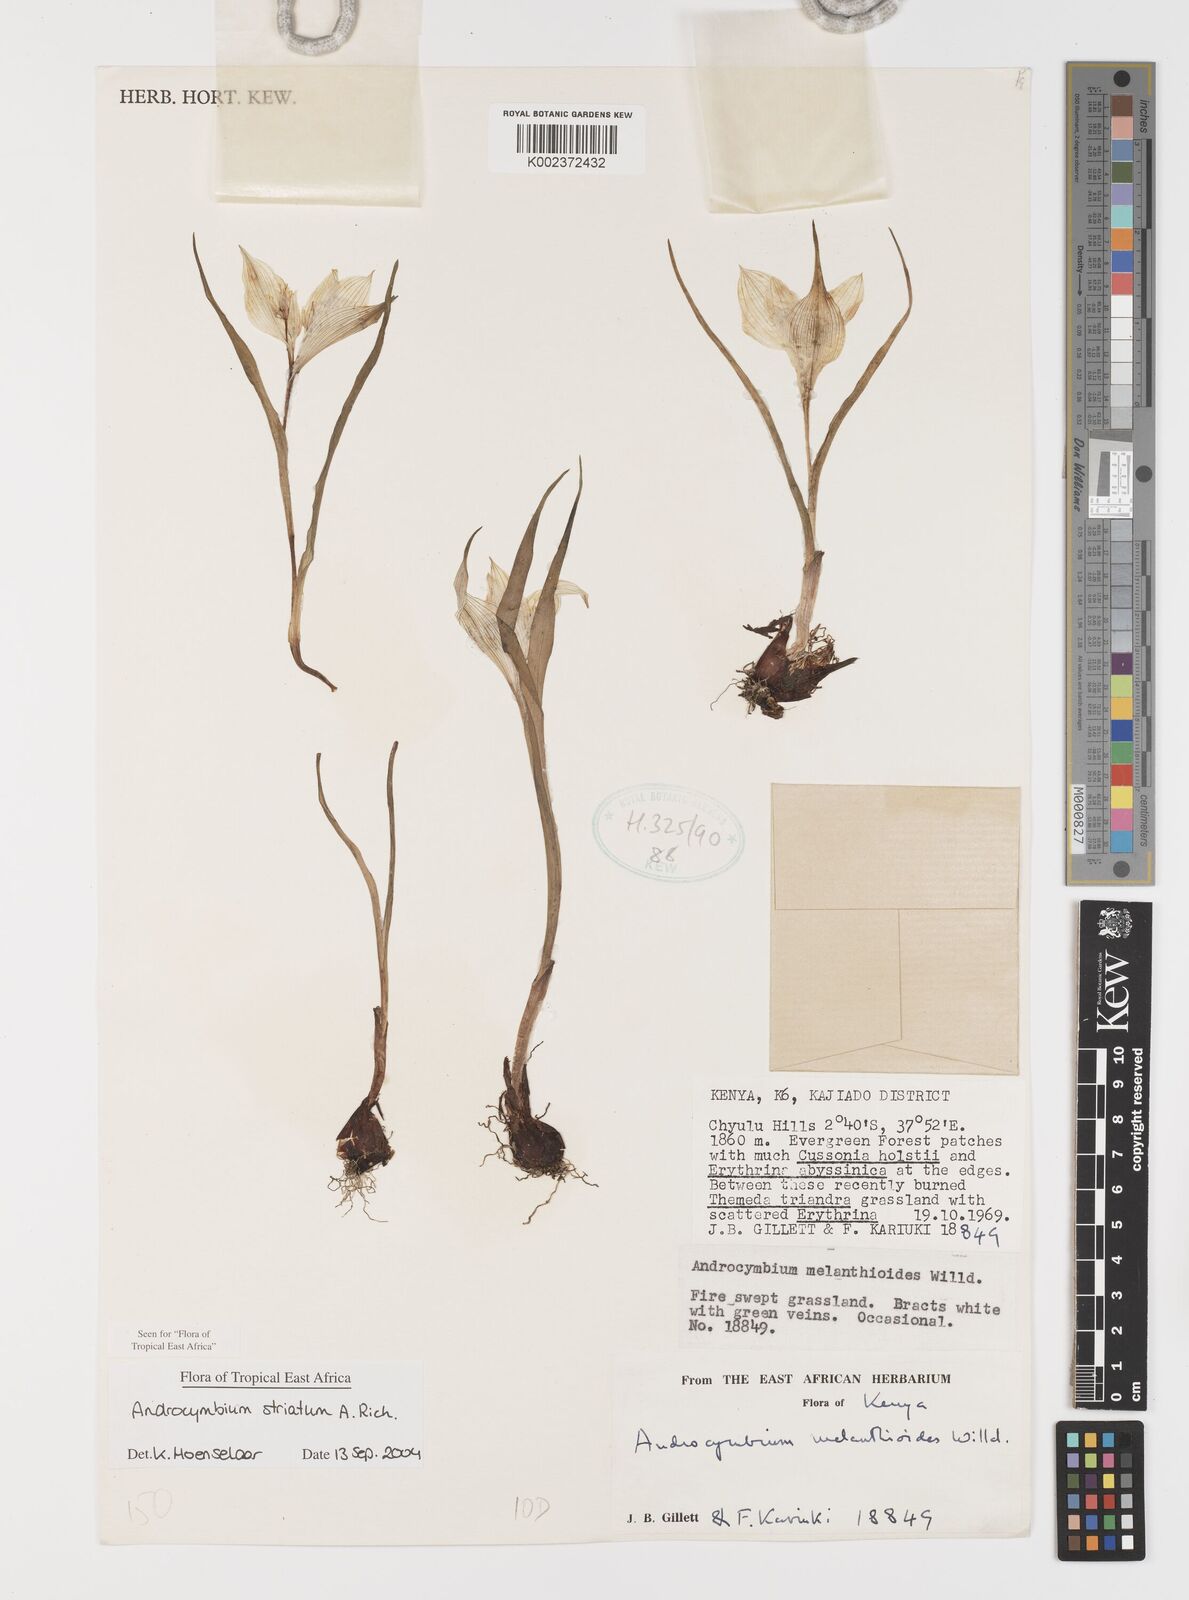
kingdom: Plantae
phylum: Tracheophyta
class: Liliopsida
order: Liliales
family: Colchicaceae
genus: Colchicum
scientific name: Colchicum striatum
